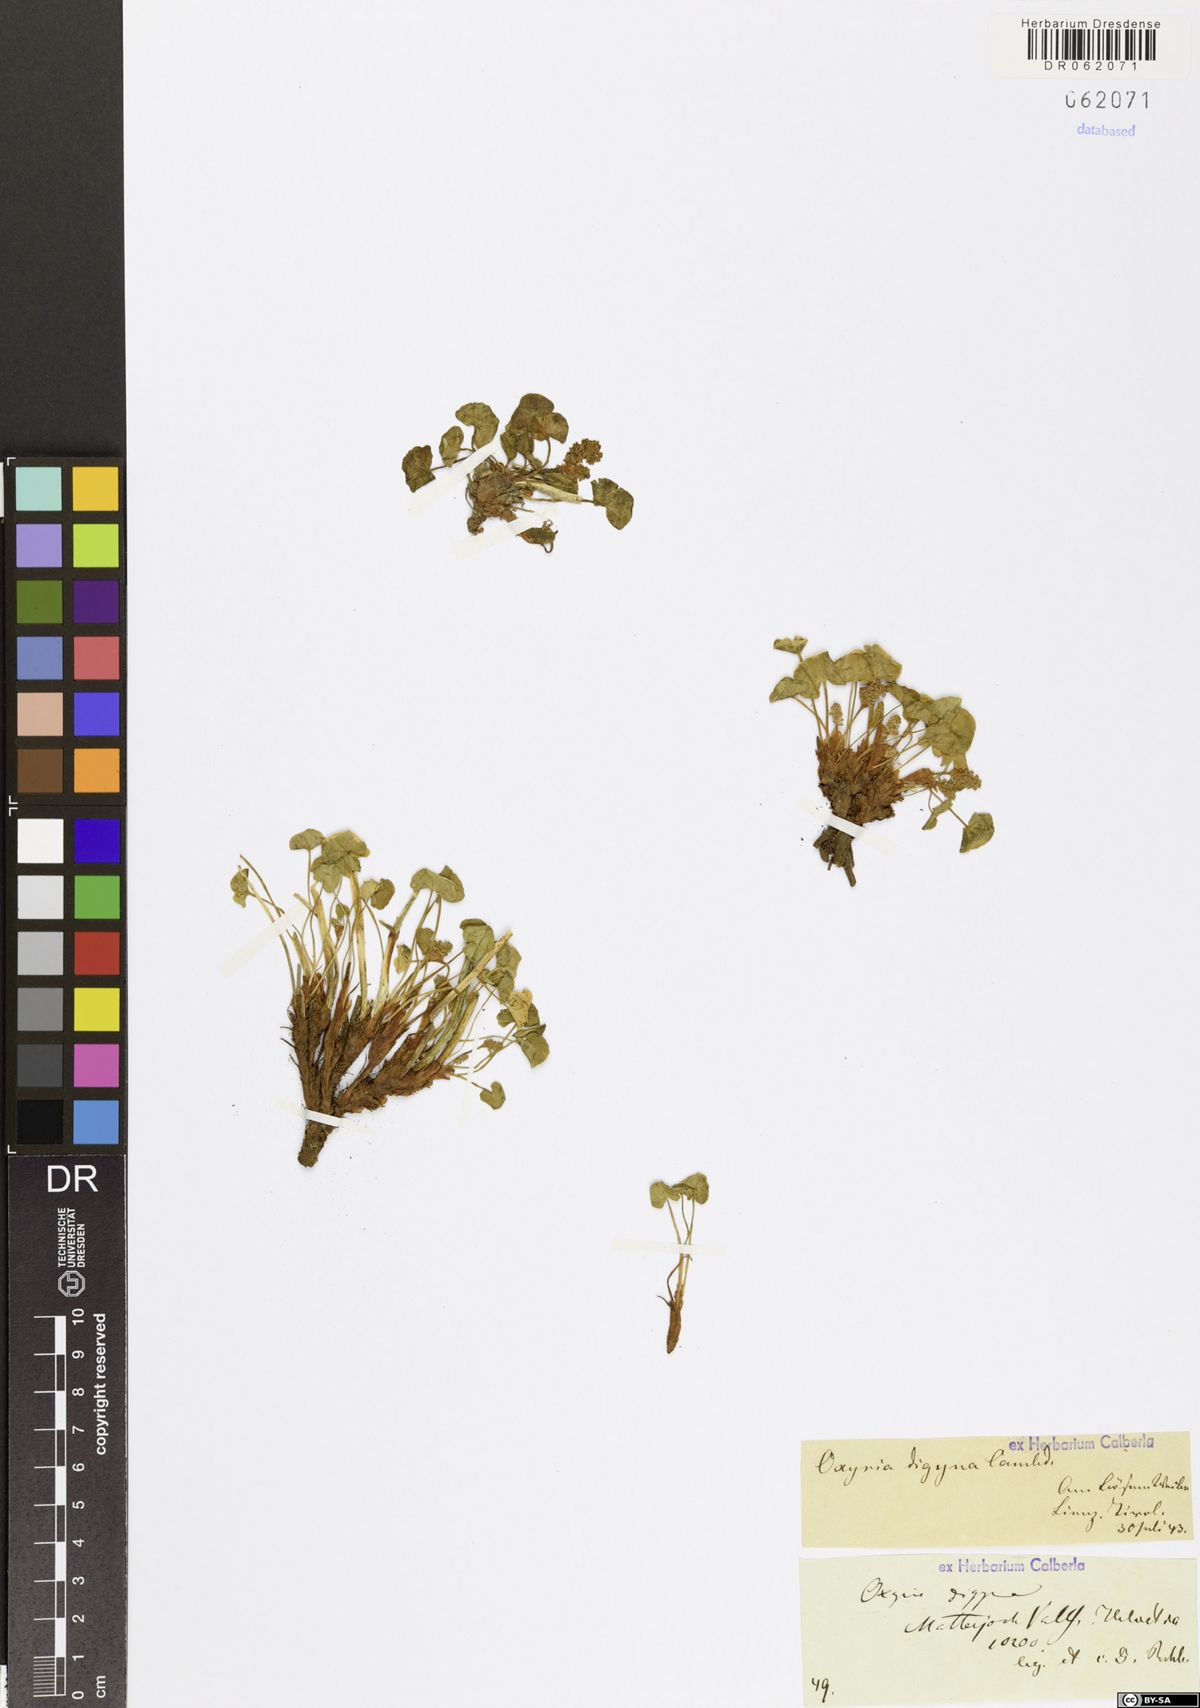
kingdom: Plantae
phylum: Tracheophyta
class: Magnoliopsida
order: Caryophyllales
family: Polygonaceae
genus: Oxyria
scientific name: Oxyria digyna
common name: Alpine mountain-sorrel
